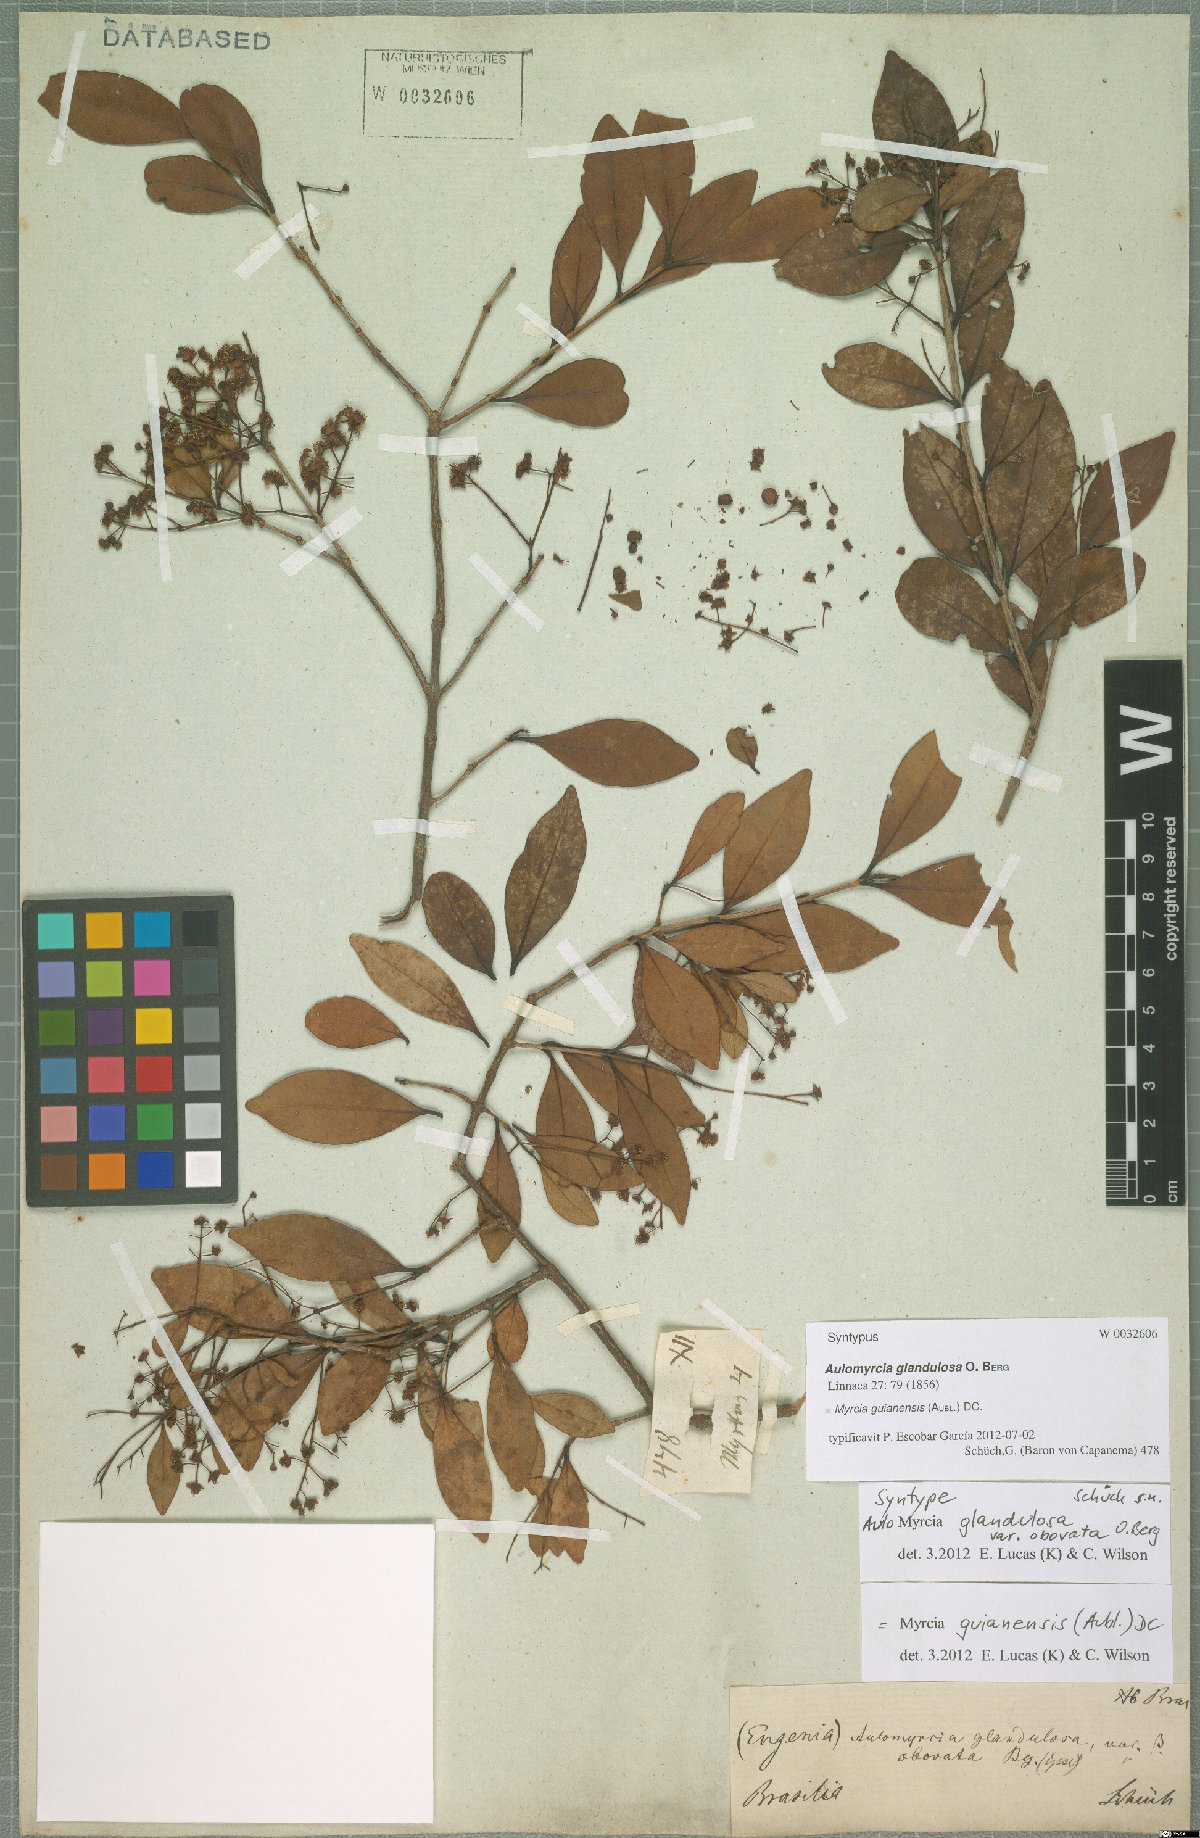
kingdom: Plantae
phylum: Tracheophyta
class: Magnoliopsida
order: Myrtales
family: Myrtaceae
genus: Myrcia
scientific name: Myrcia guianensis
